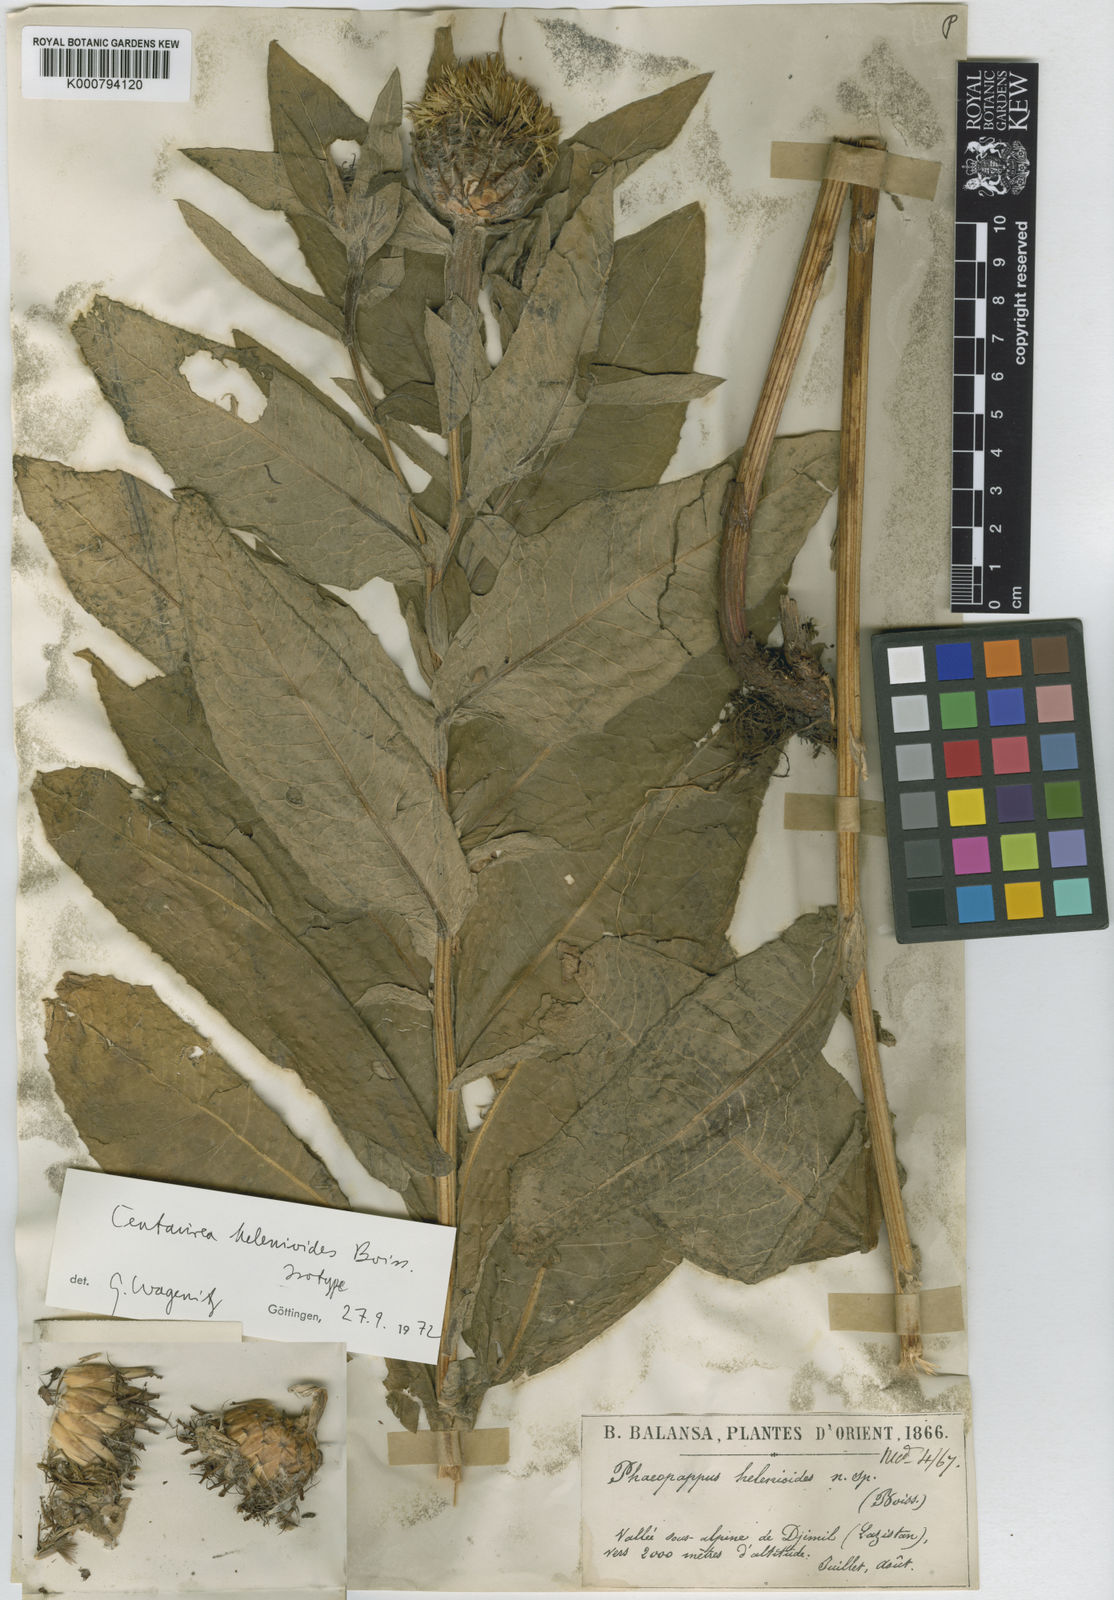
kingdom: Plantae
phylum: Tracheophyta
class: Magnoliopsida
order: Asterales
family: Asteraceae
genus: Centaurea
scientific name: Centaurea helenioides
